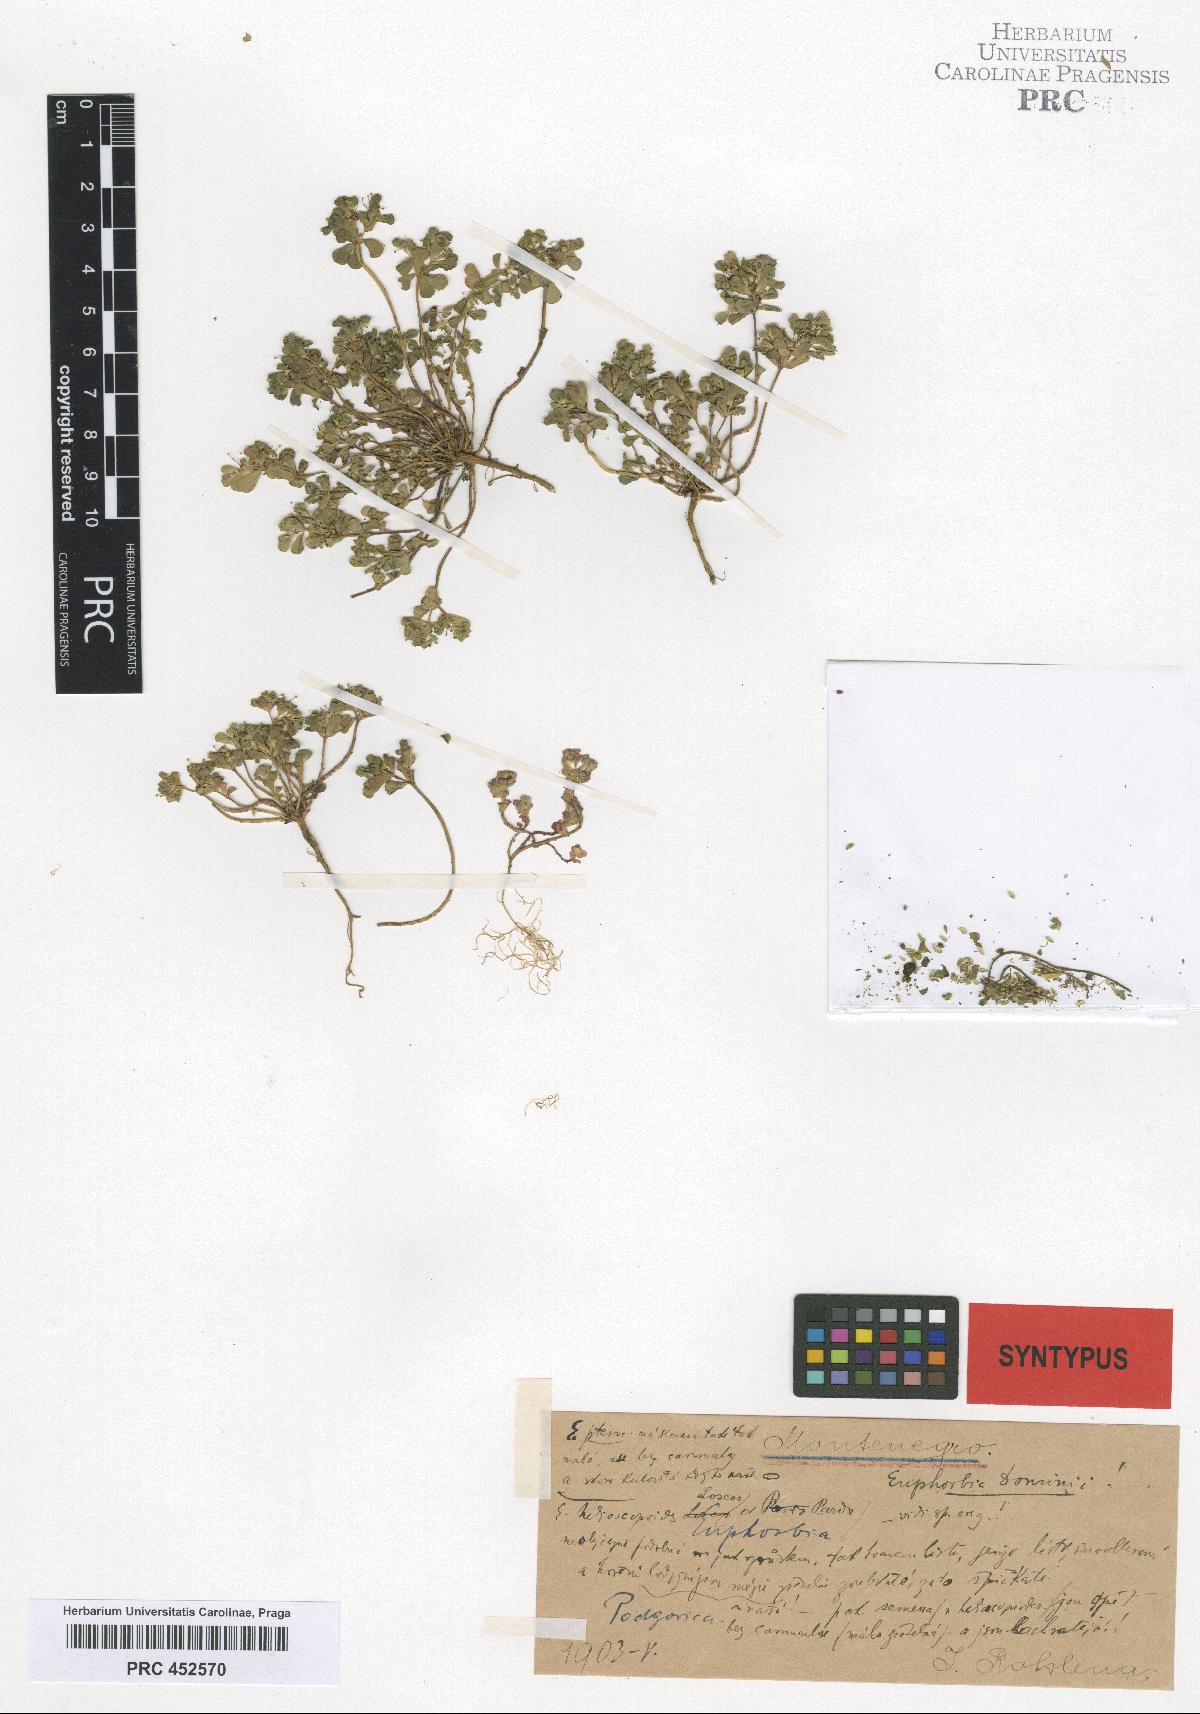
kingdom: Plantae
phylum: Tracheophyta
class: Magnoliopsida
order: Malpighiales
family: Euphorbiaceae
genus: Euphorbia
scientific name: Euphorbia helioscopia
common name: Sun spurge
